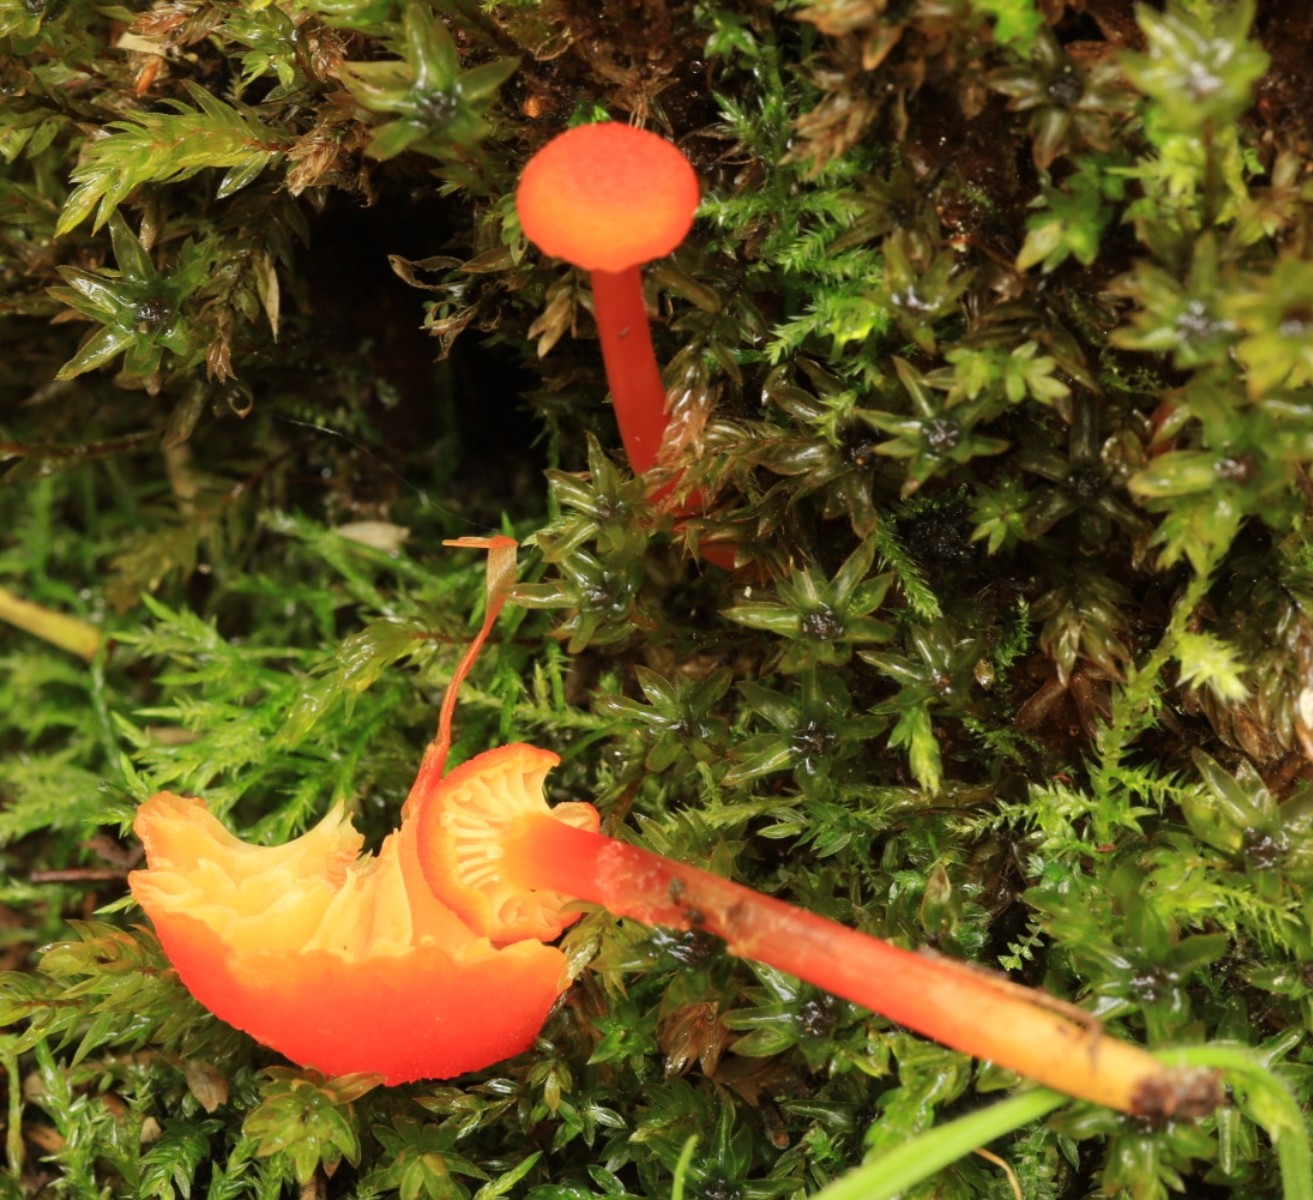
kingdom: Fungi
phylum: Basidiomycota
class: Agaricomycetes
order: Agaricales
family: Hygrophoraceae
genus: Hygrocybe
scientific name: Hygrocybe cantharellus
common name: kantarel-vokshat
